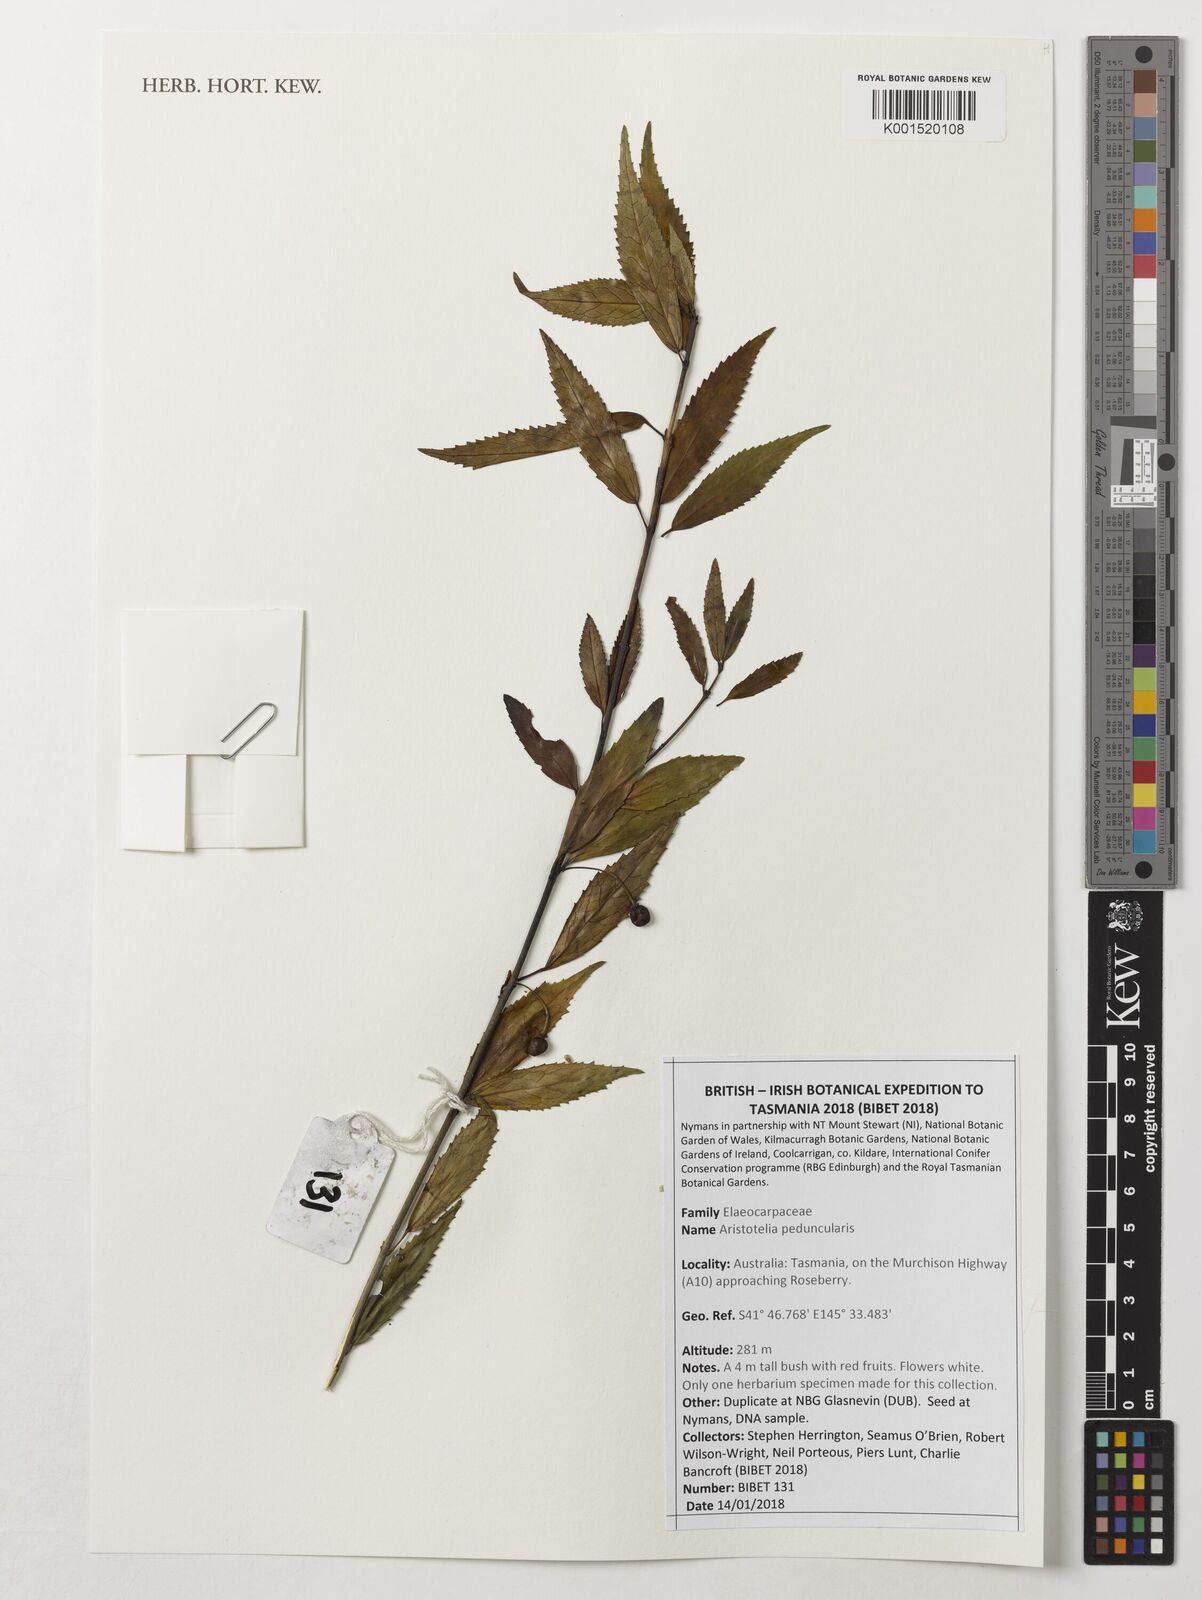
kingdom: Plantae
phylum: Tracheophyta
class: Magnoliopsida
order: Oxalidales
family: Elaeocarpaceae
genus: Aristotelia
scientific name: Aristotelia peduncularis
